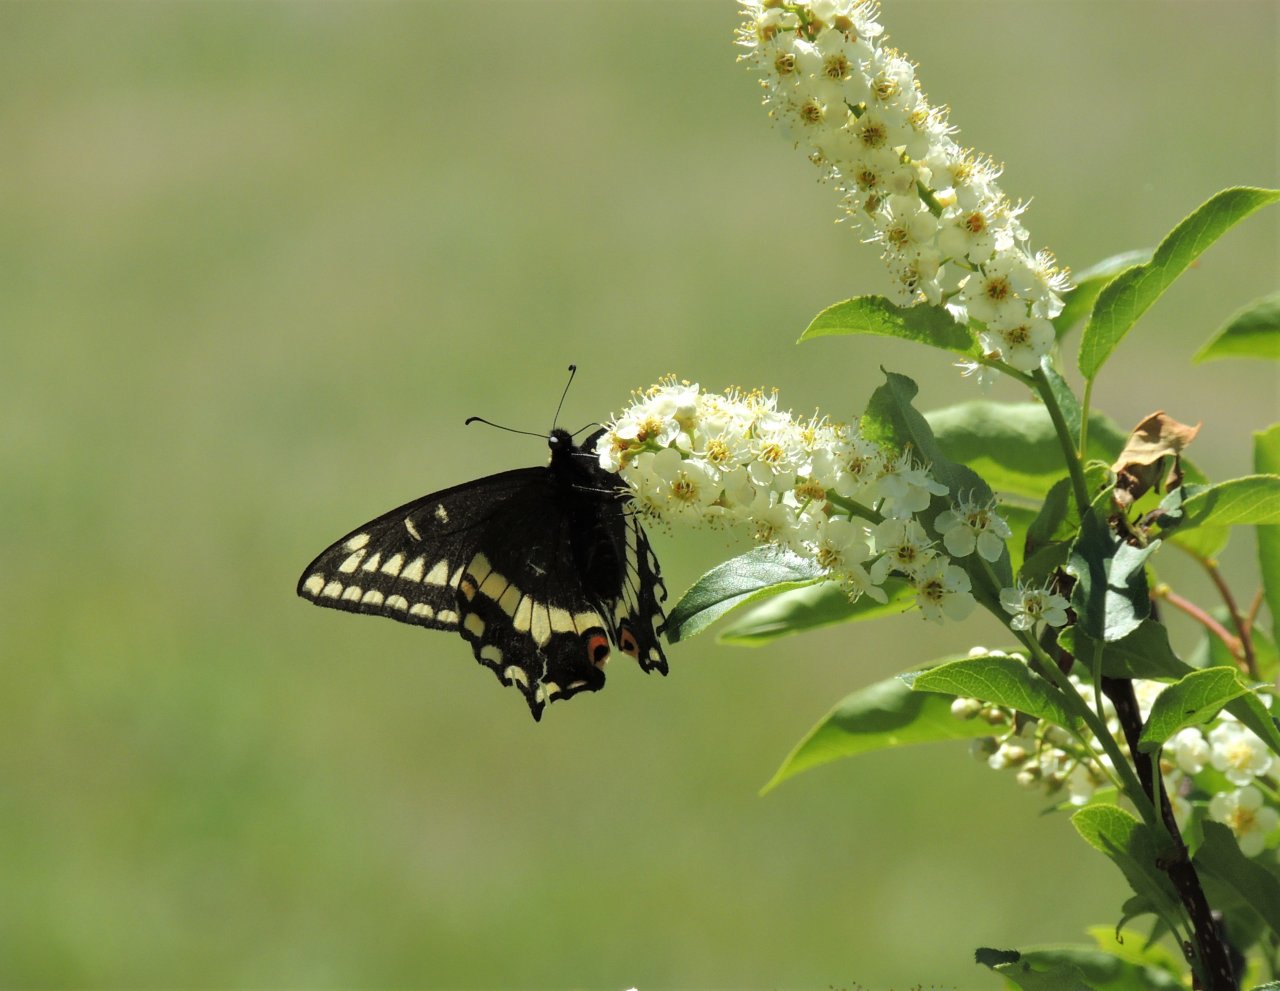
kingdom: Animalia
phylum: Arthropoda
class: Insecta
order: Lepidoptera
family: Papilionidae
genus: Papilio
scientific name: Papilio indra
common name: Indra Swallowtail
